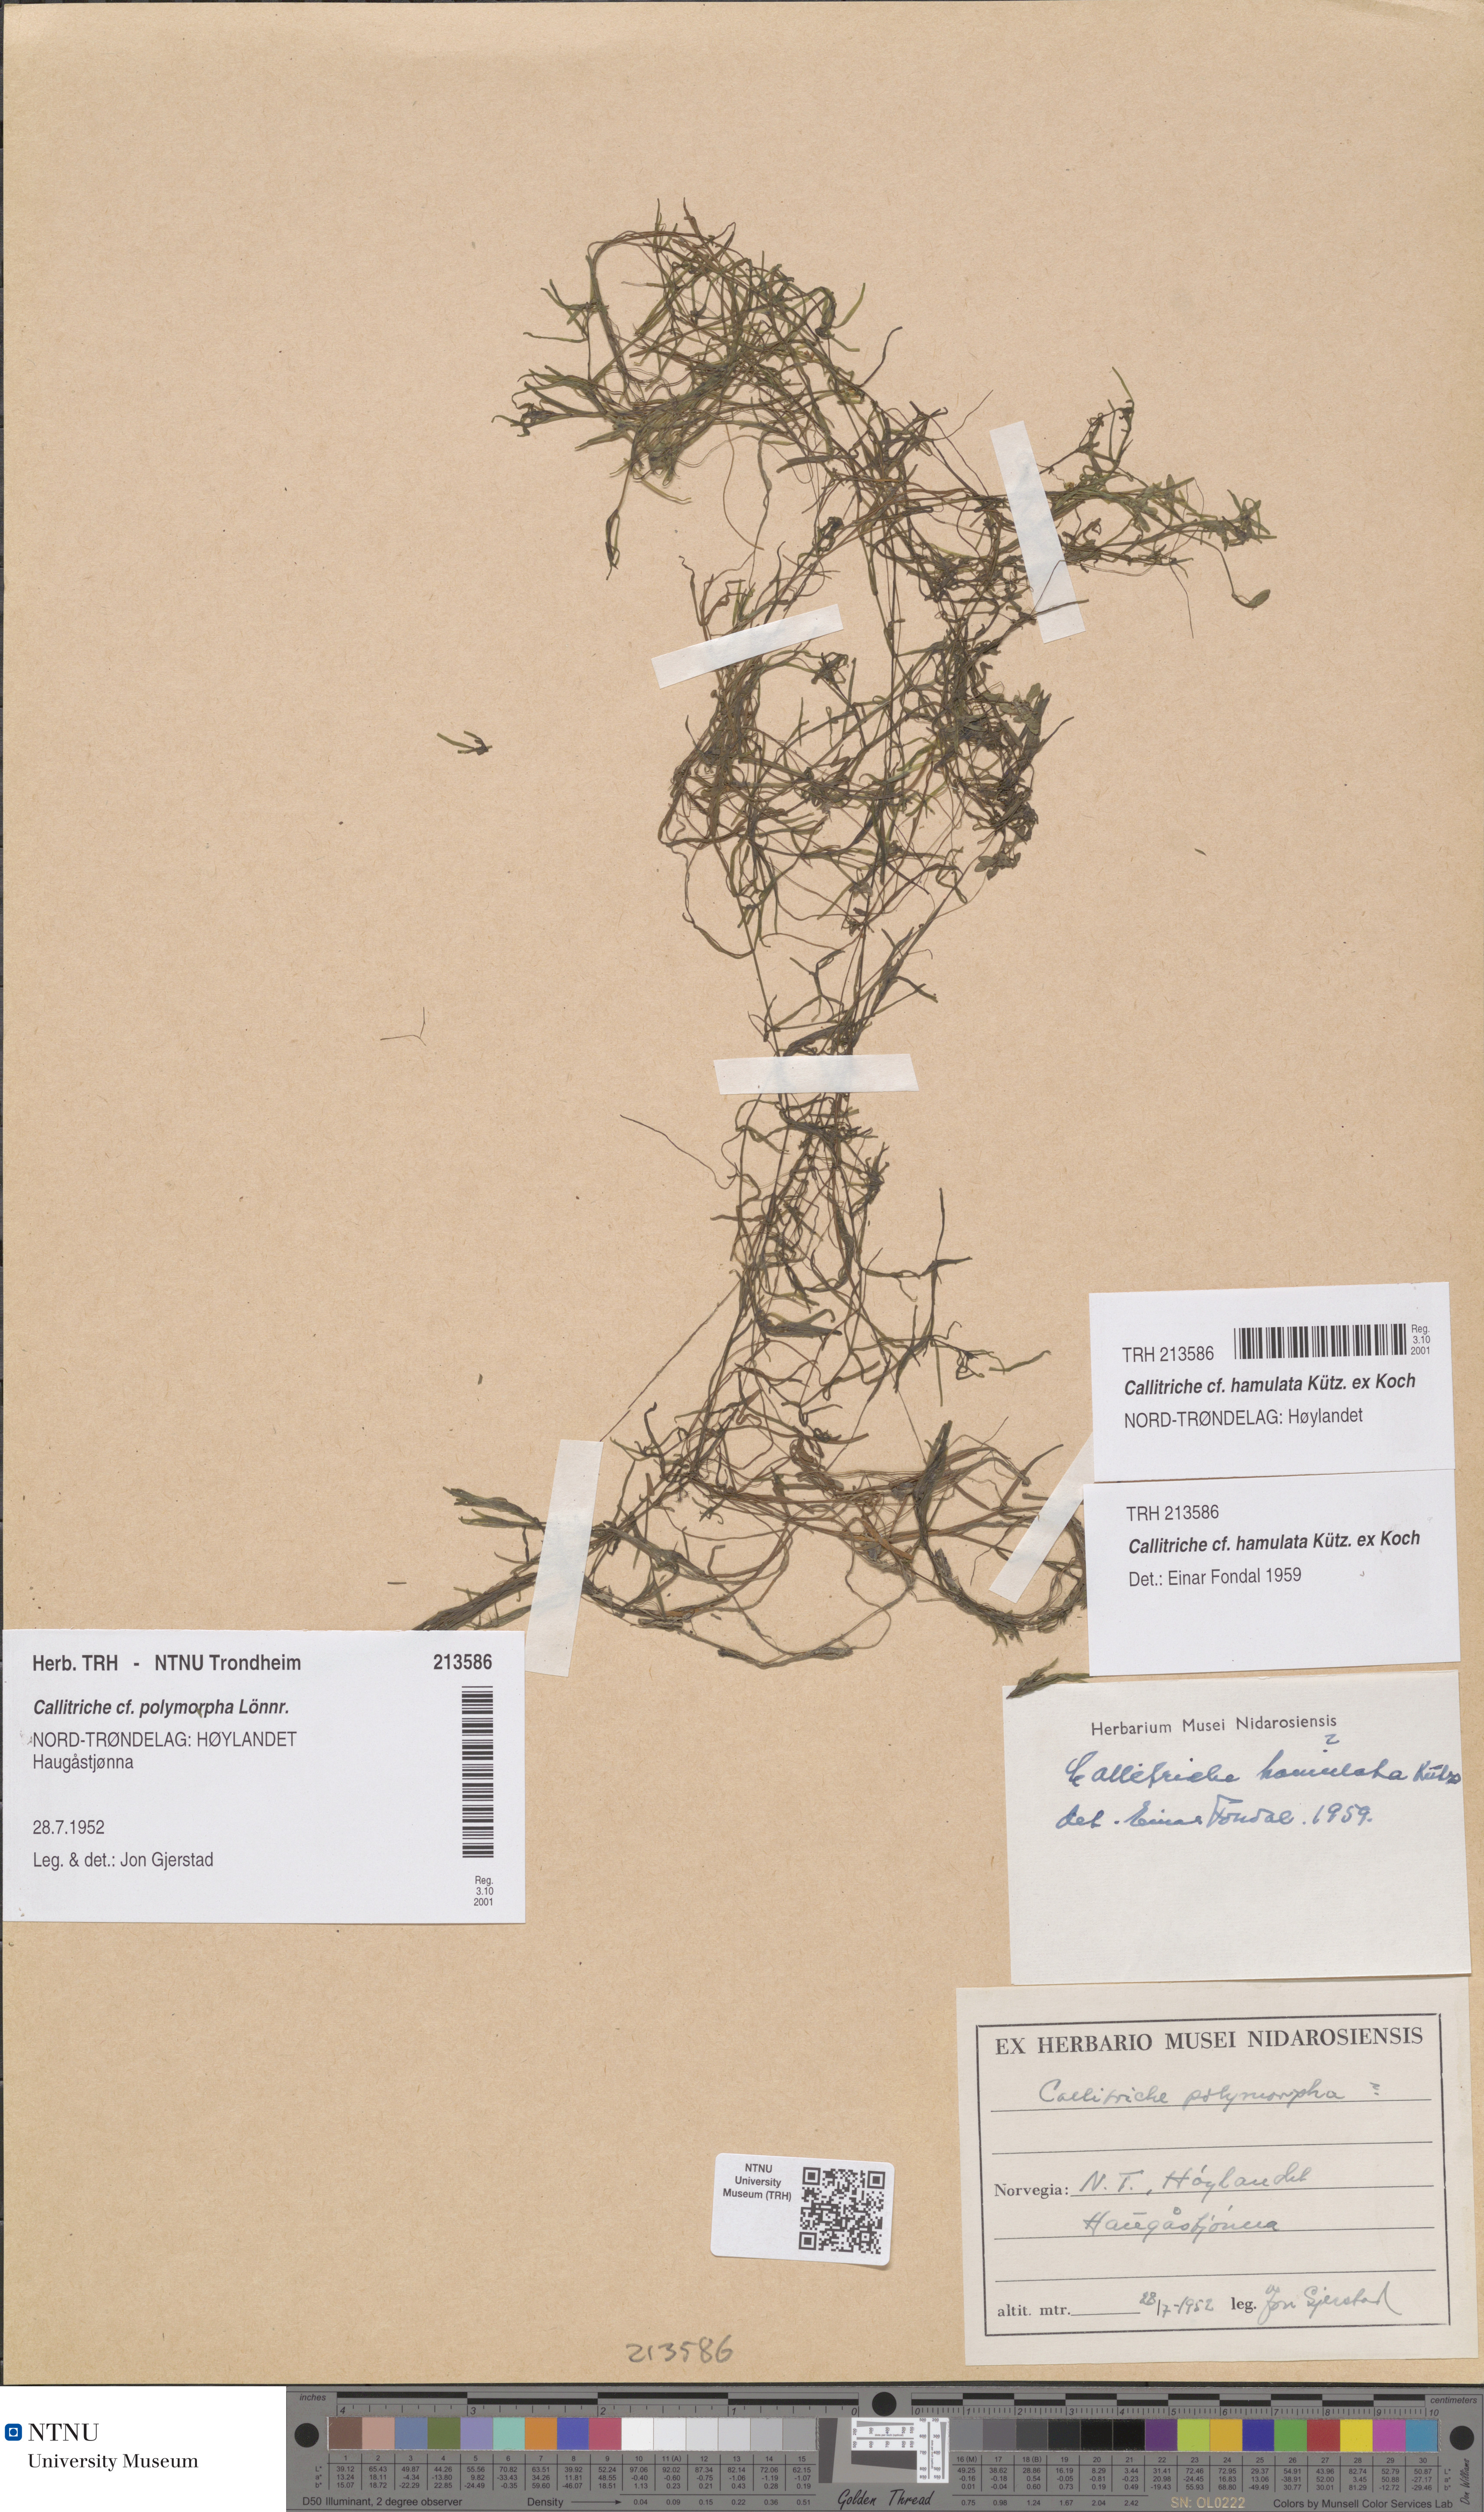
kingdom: Plantae
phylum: Tracheophyta
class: Magnoliopsida
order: Lamiales
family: Plantaginaceae
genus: Callitriche
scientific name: Callitriche hamulata
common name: Intermediate water-starwort
